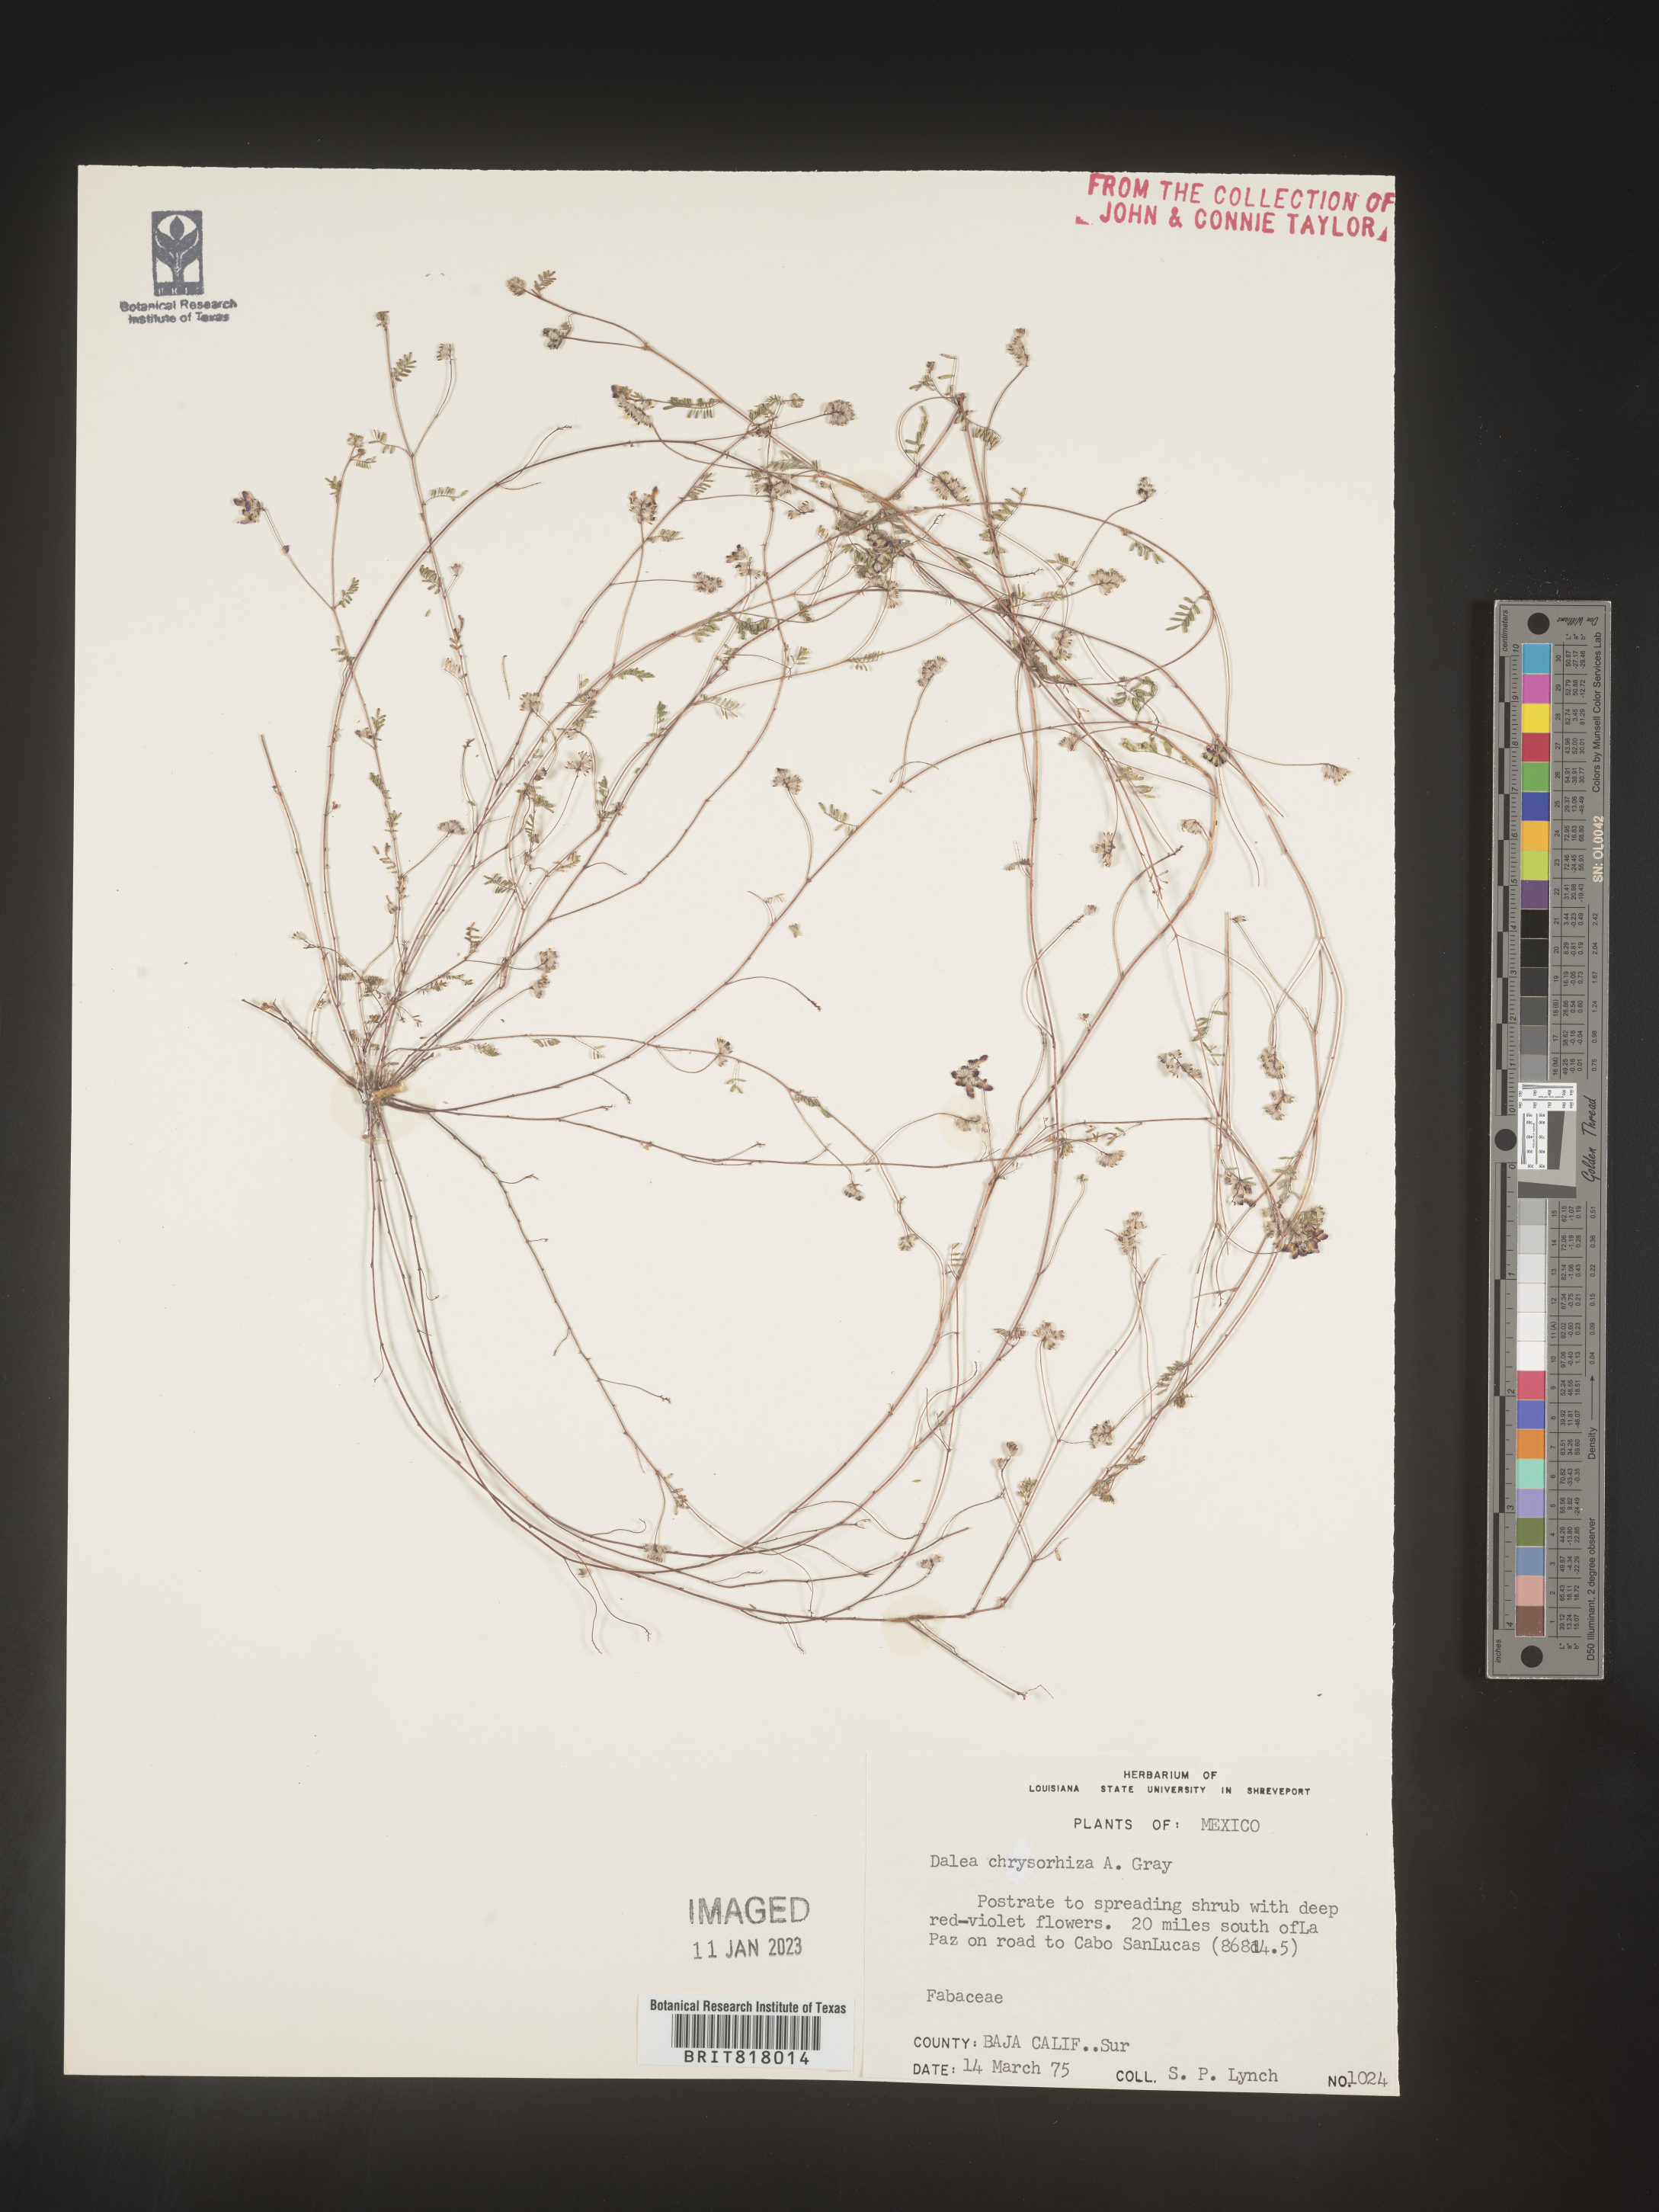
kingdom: Plantae
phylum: Tracheophyta
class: Magnoliopsida
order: Fabales
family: Fabaceae
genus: Dalea
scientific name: Dalea
